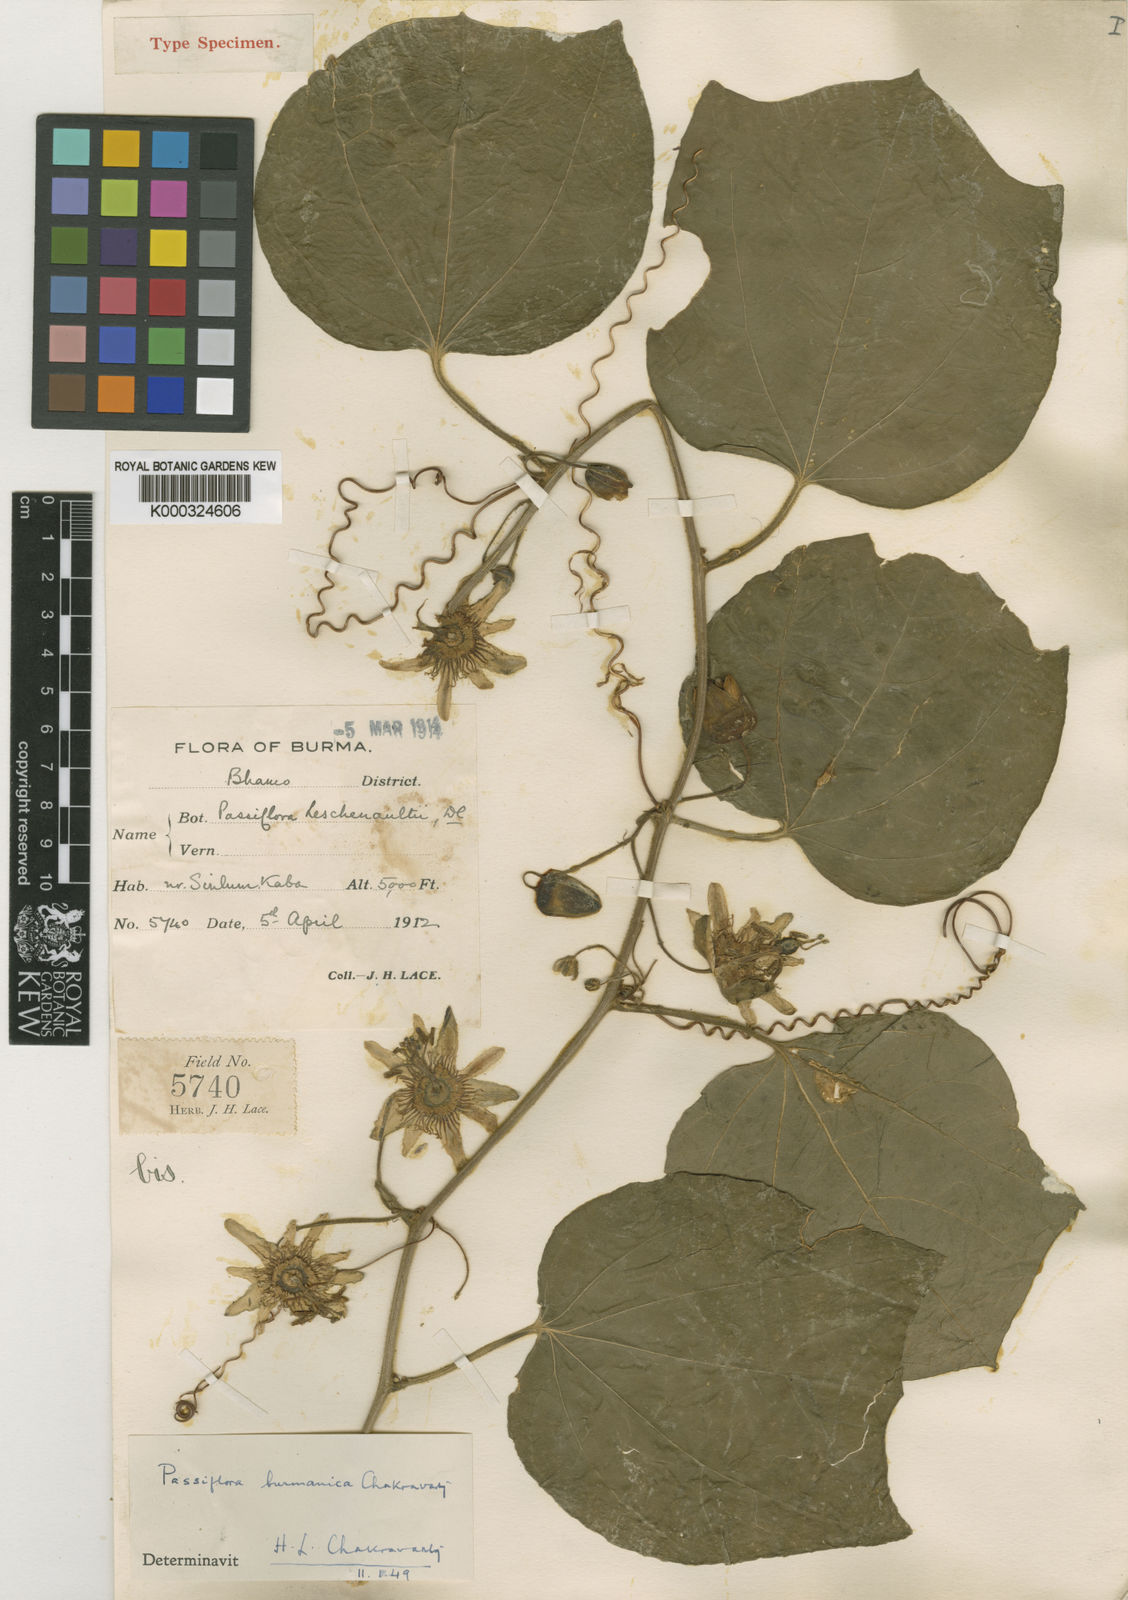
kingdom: Plantae
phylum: Tracheophyta
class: Magnoliopsida
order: Malpighiales
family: Passifloraceae
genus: Passiflora
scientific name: Passiflora jugorum
